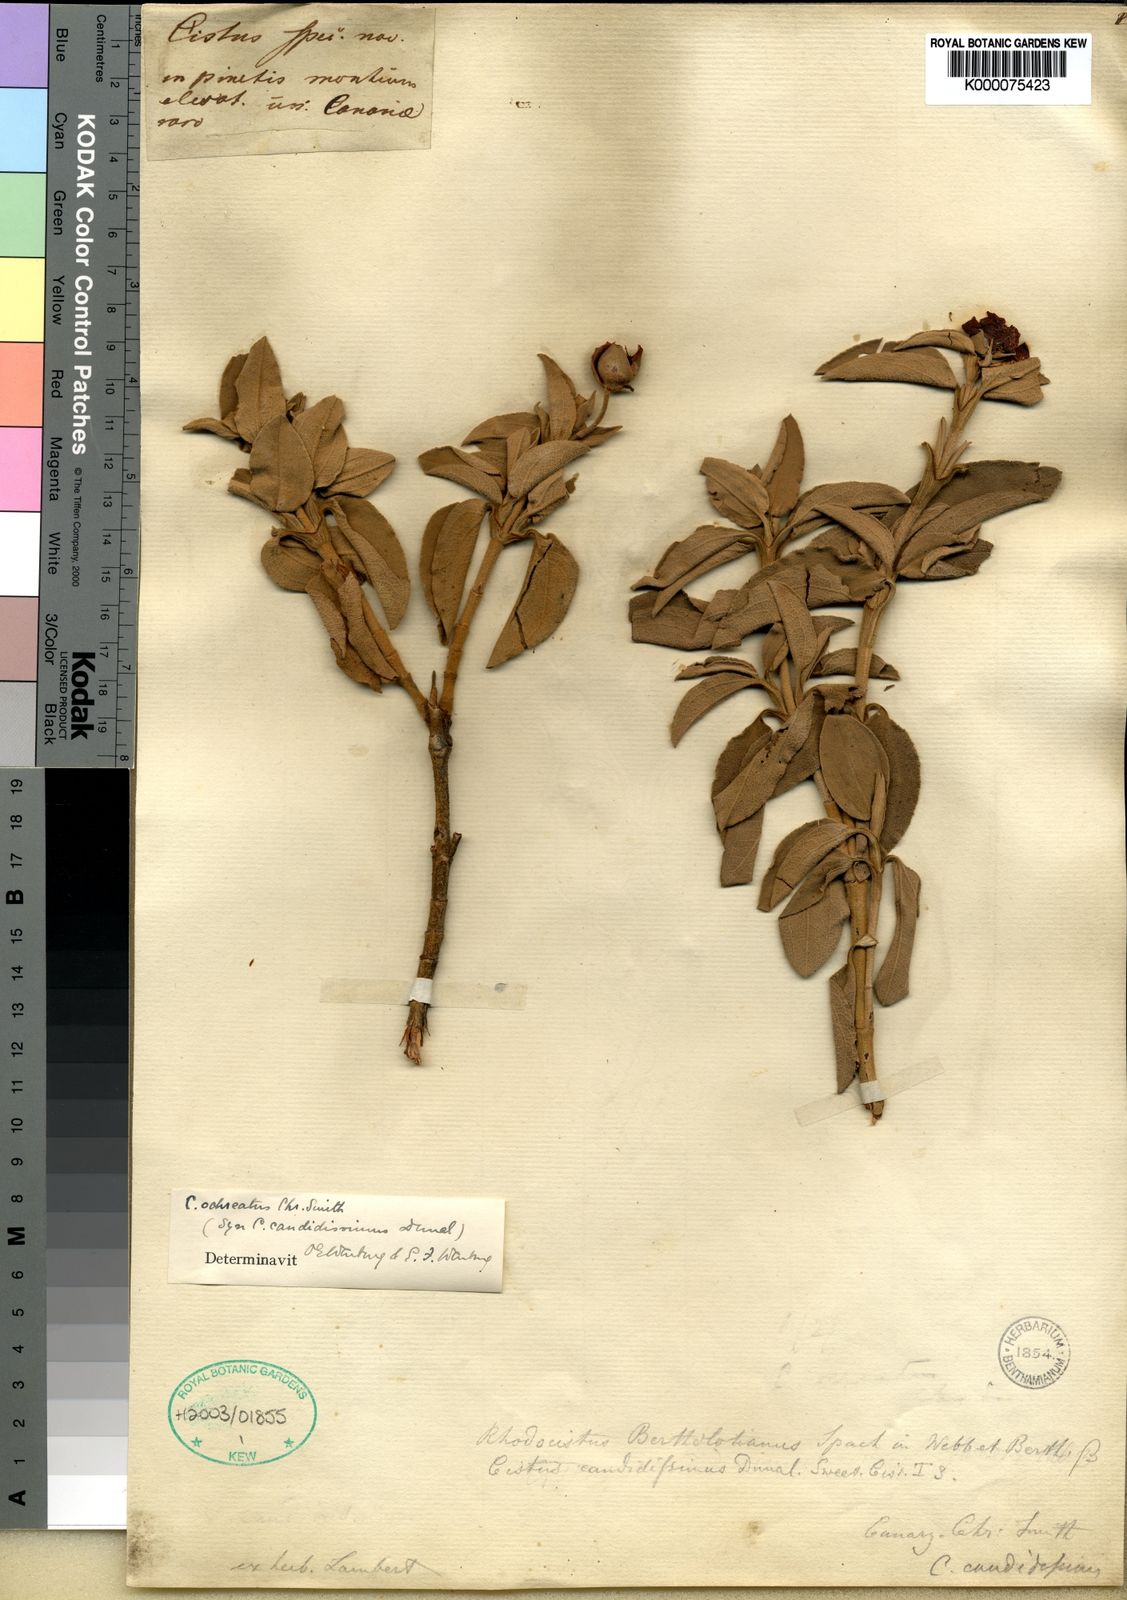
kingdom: Plantae
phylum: Tracheophyta
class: Magnoliopsida
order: Malvales
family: Cistaceae
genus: Cistus
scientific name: Cistus osbeckiifolius
